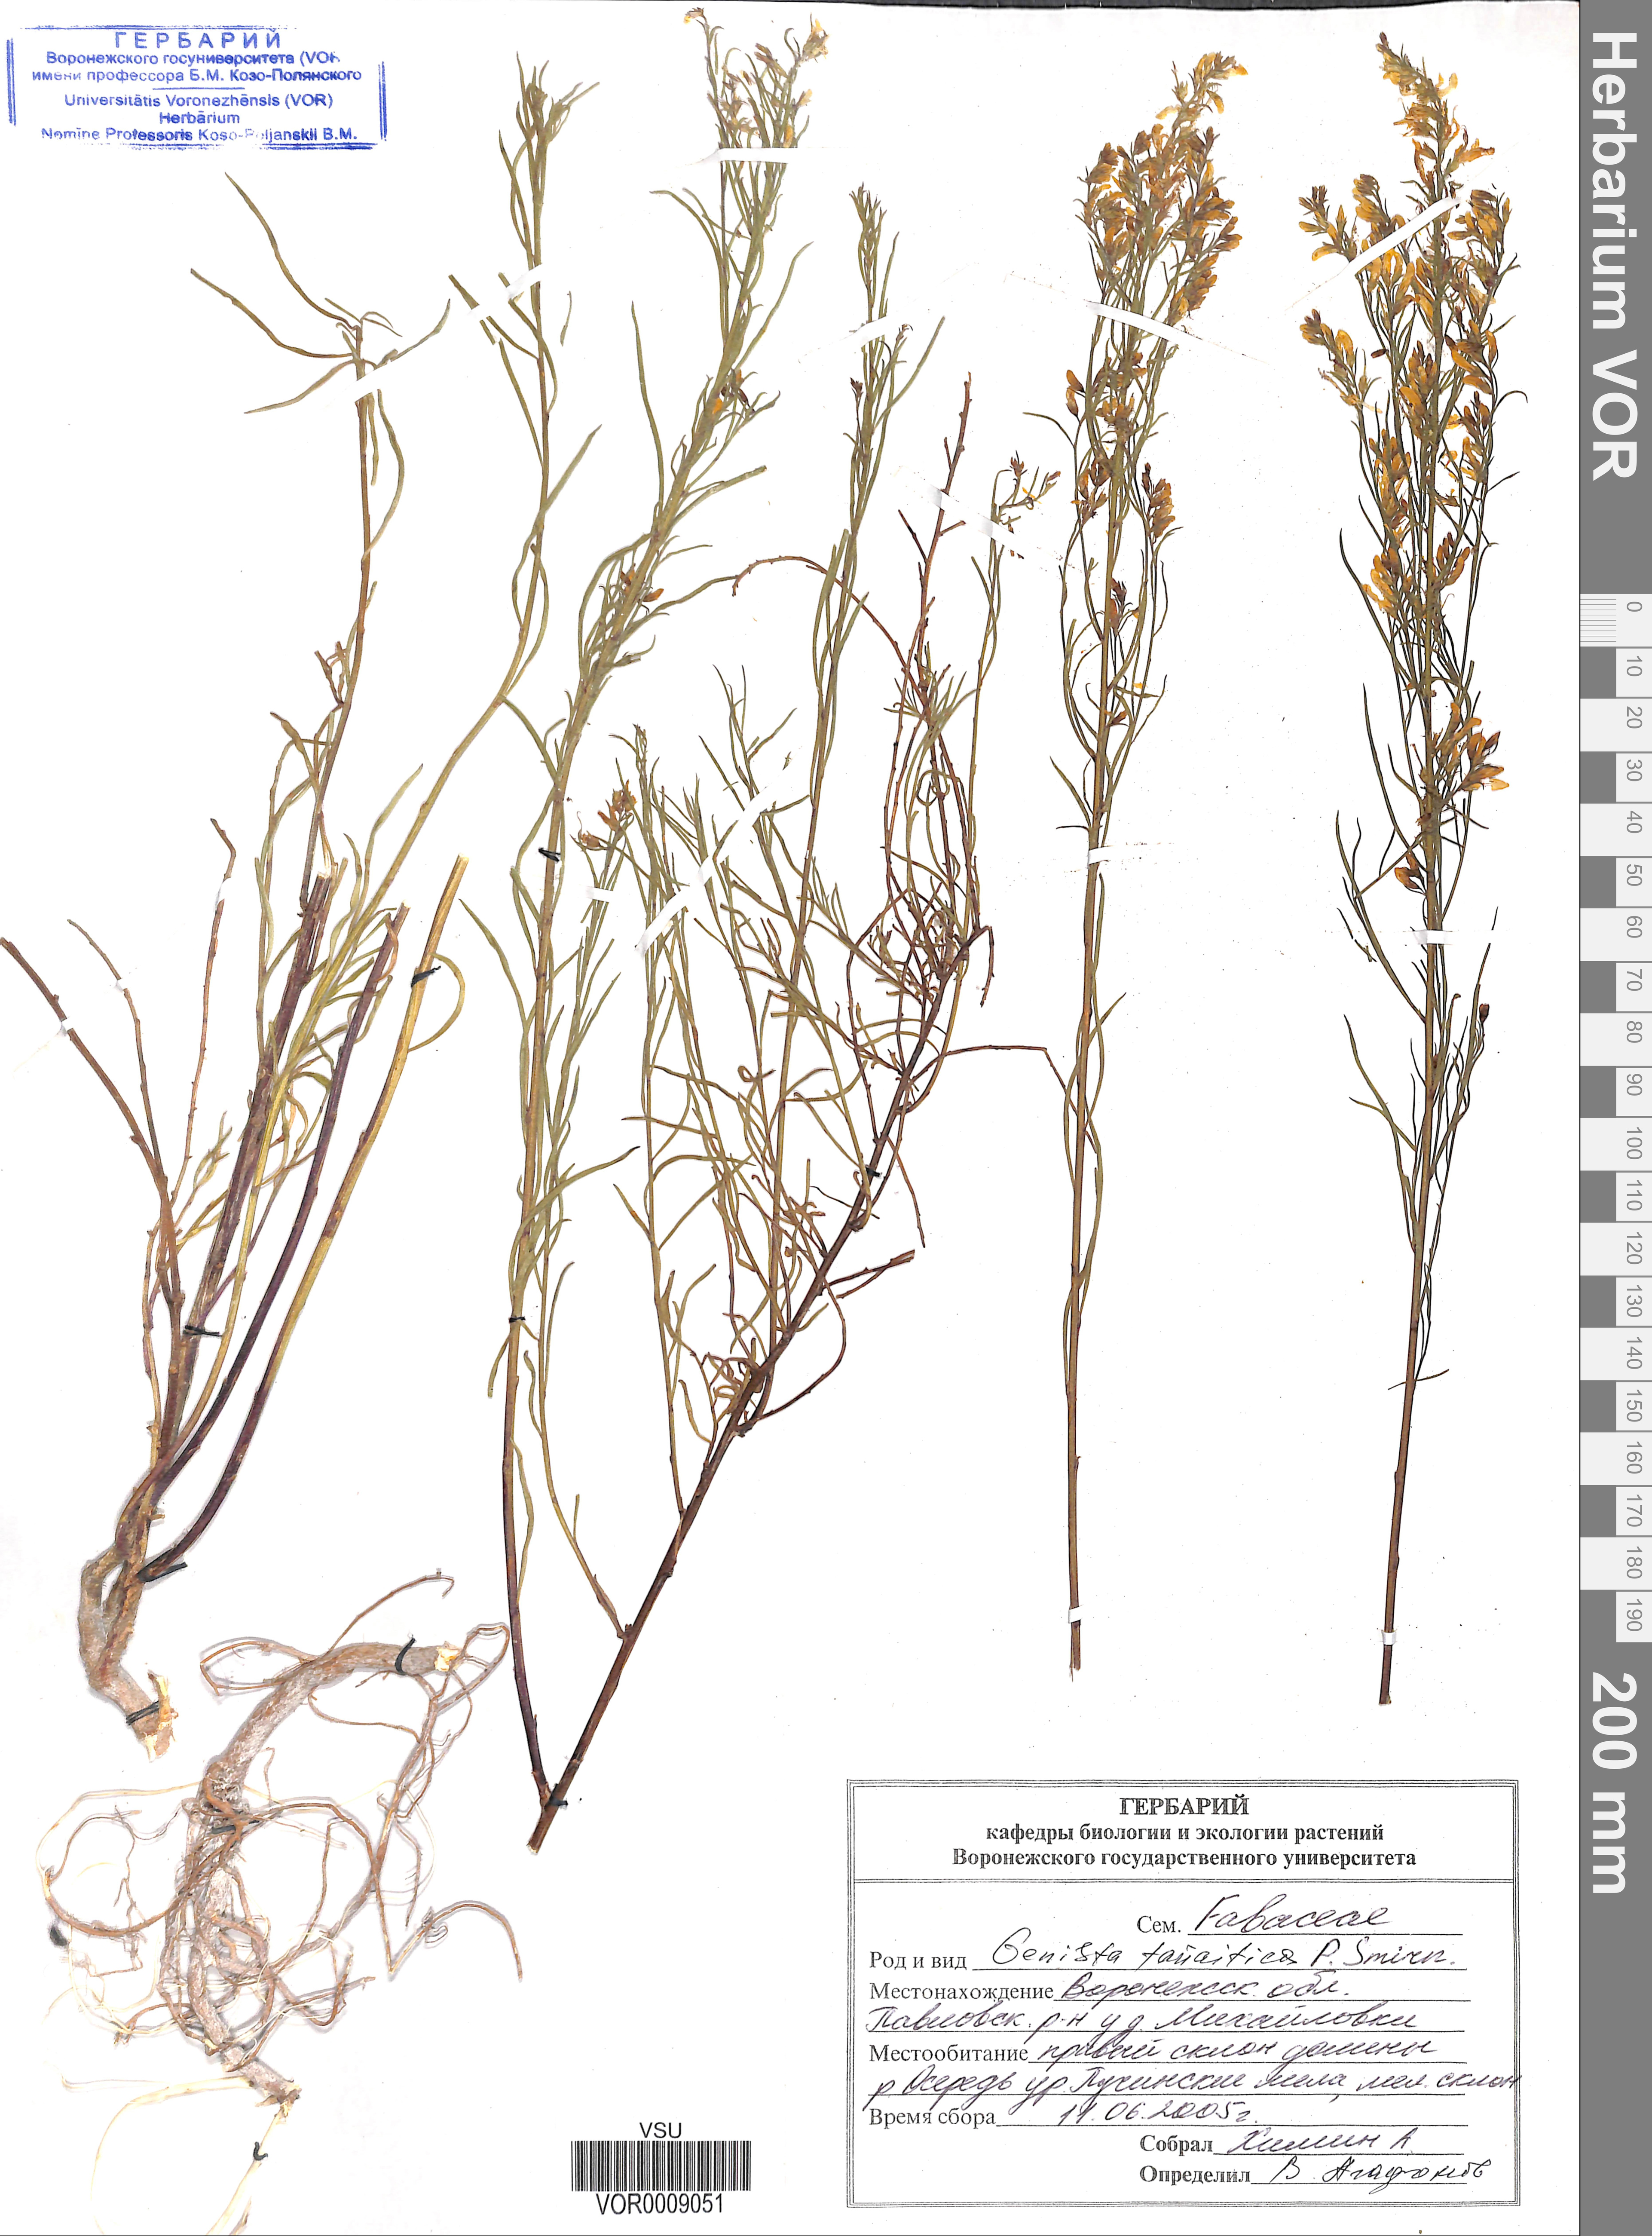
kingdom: Plantae
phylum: Tracheophyta
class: Magnoliopsida
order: Fabales
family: Fabaceae
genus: Genista
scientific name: Genista tinctoria
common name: Dyer's greenweed
